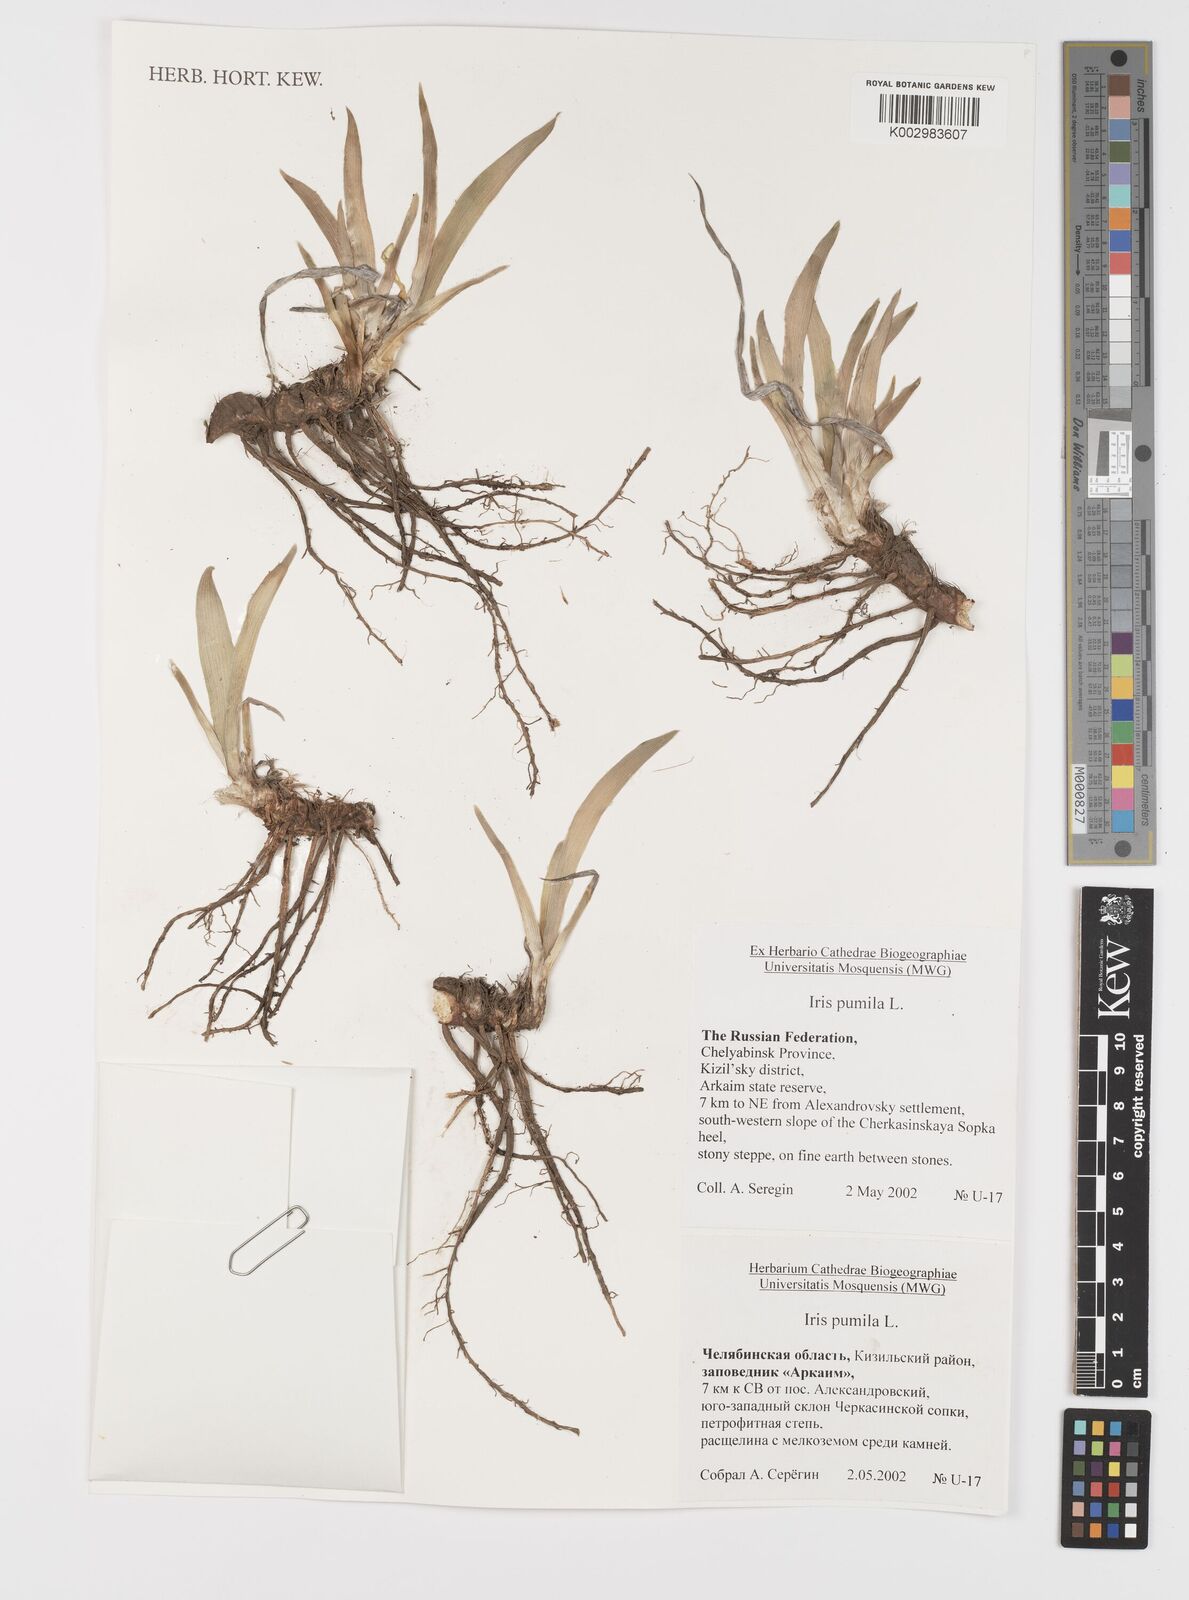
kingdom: Plantae
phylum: Tracheophyta
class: Liliopsida
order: Asparagales
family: Iridaceae
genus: Iris
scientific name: Iris pumila
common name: Dwarf iris
